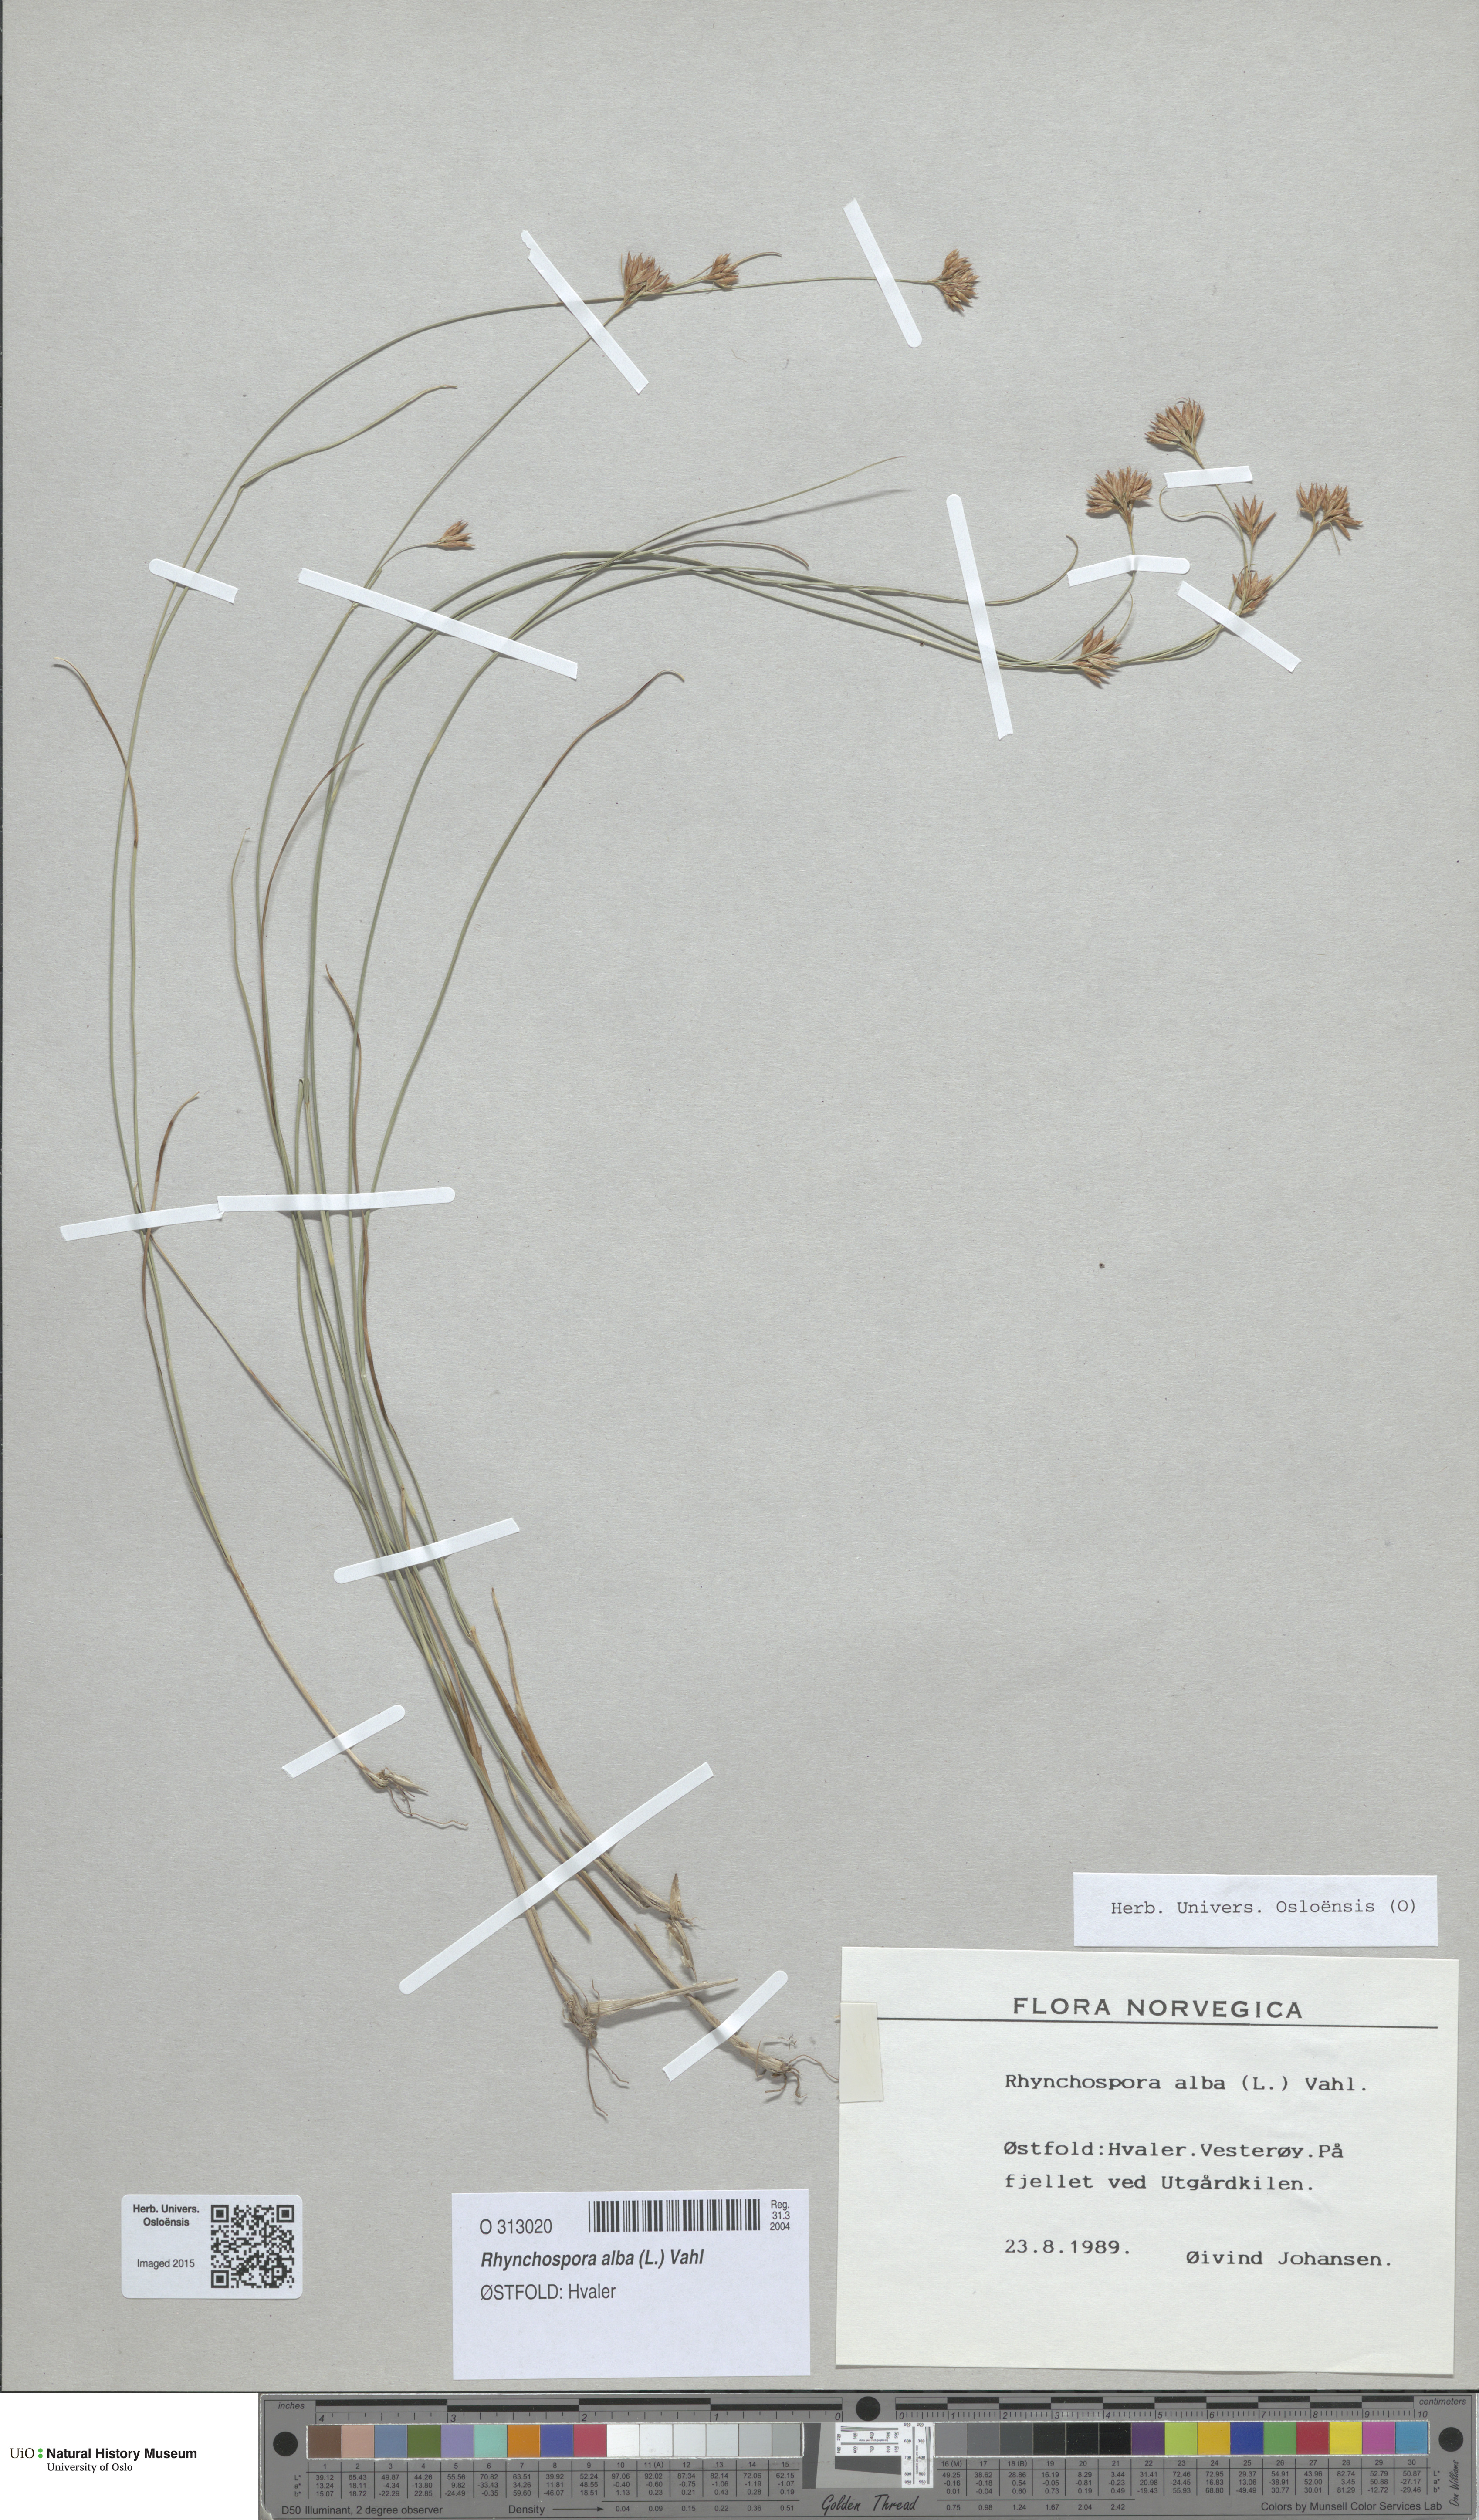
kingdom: Plantae
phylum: Tracheophyta
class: Liliopsida
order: Poales
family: Cyperaceae
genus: Rhynchospora
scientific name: Rhynchospora alba
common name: White beak-sedge
